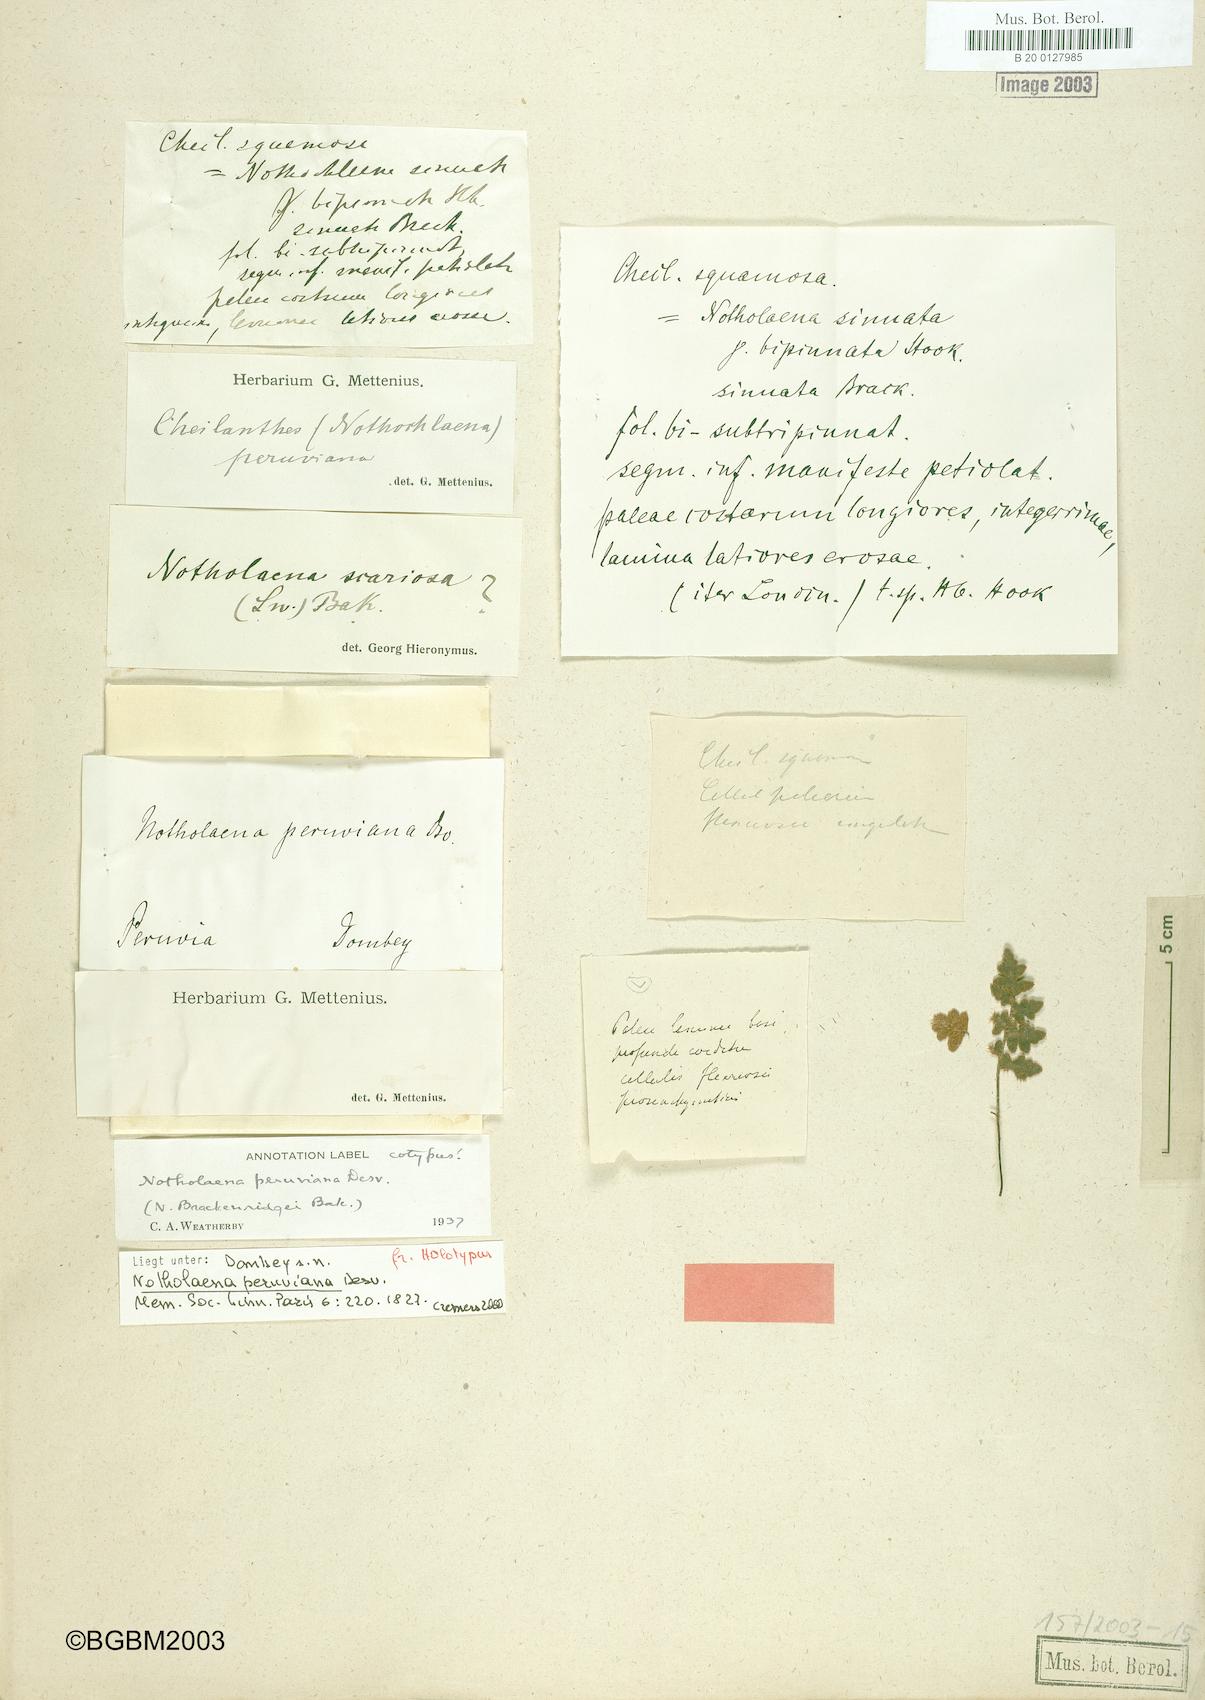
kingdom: Plantae
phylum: Tracheophyta
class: Polypodiopsida
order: Polypodiales
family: Pteridaceae
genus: Cheilanthes
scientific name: Cheilanthes peruviana
